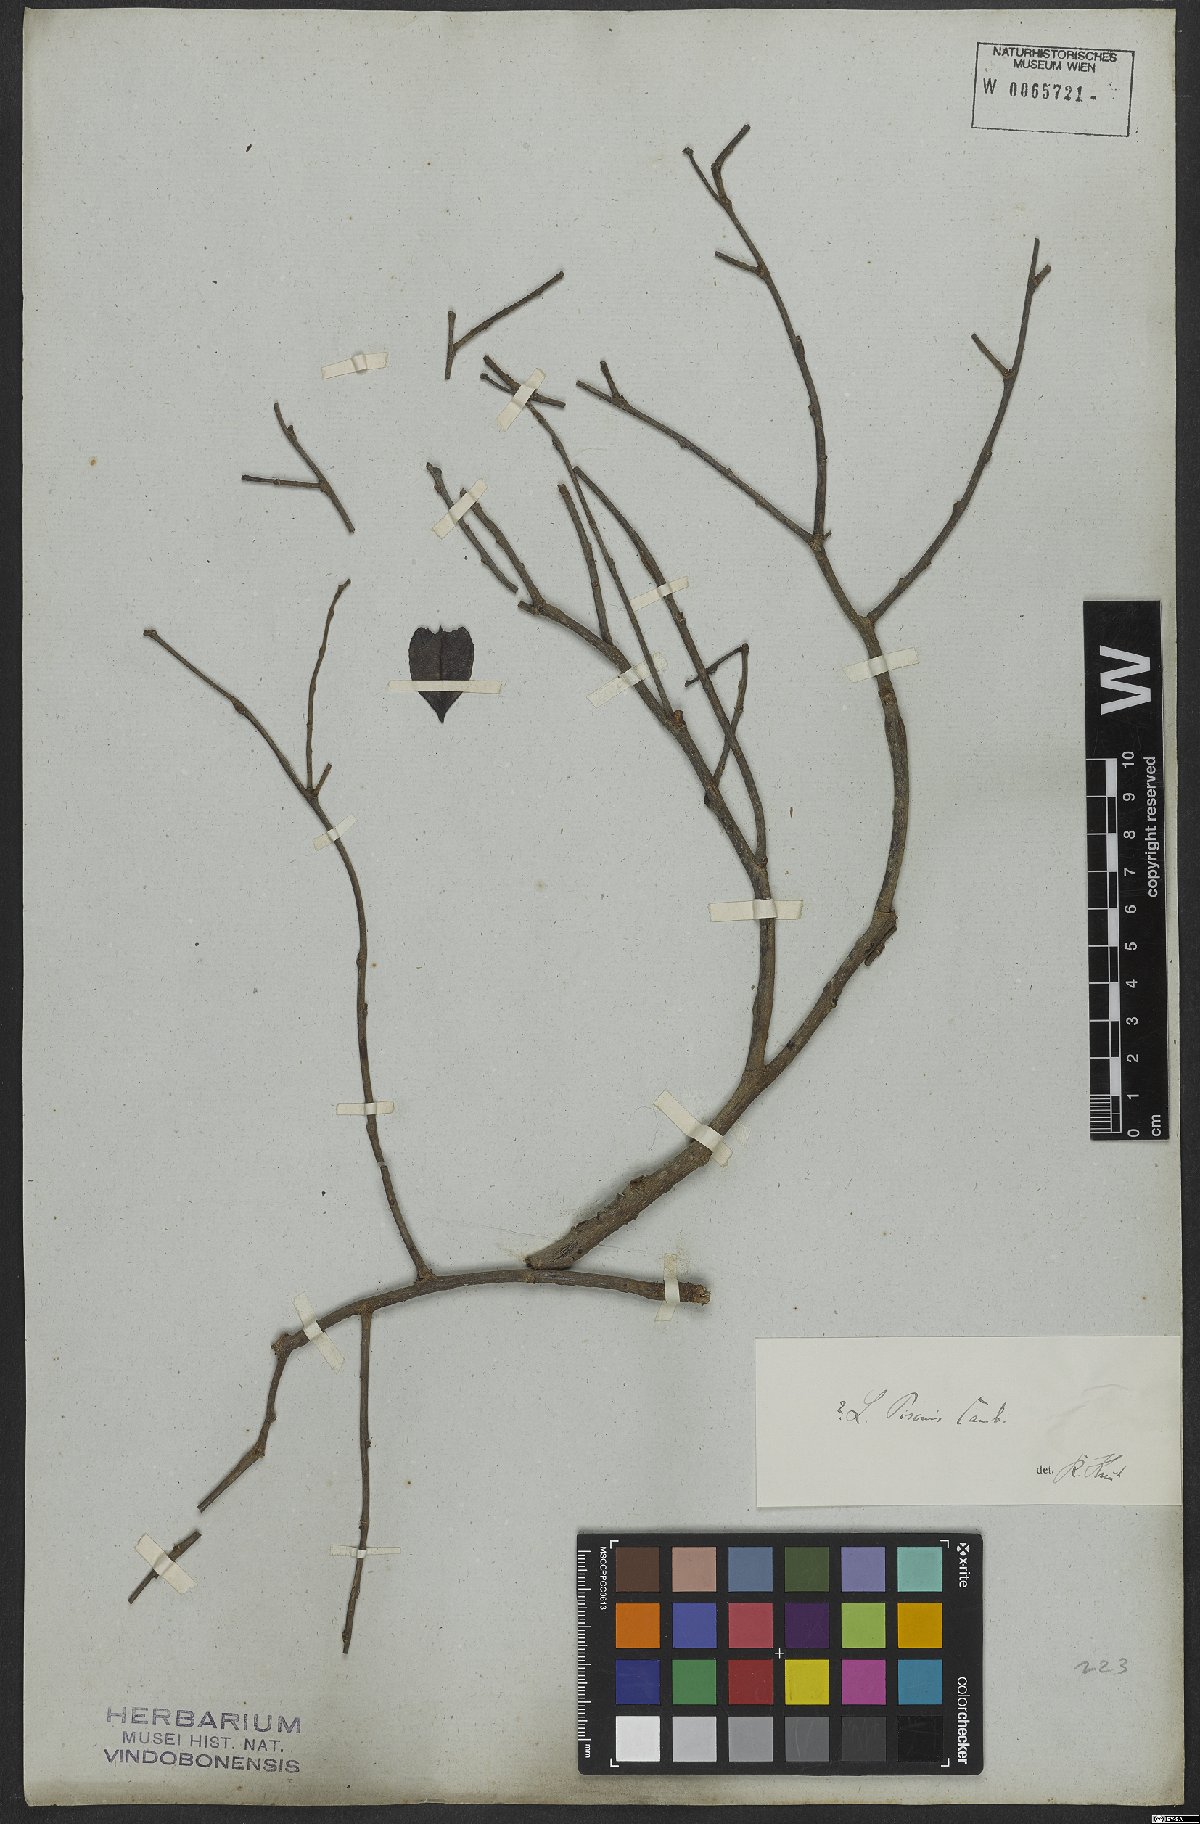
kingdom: Plantae
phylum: Tracheophyta
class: Magnoliopsida
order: Ericales
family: Lecythidaceae
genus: Lecythis
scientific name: Lecythis pisonis
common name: Paradise-nut
